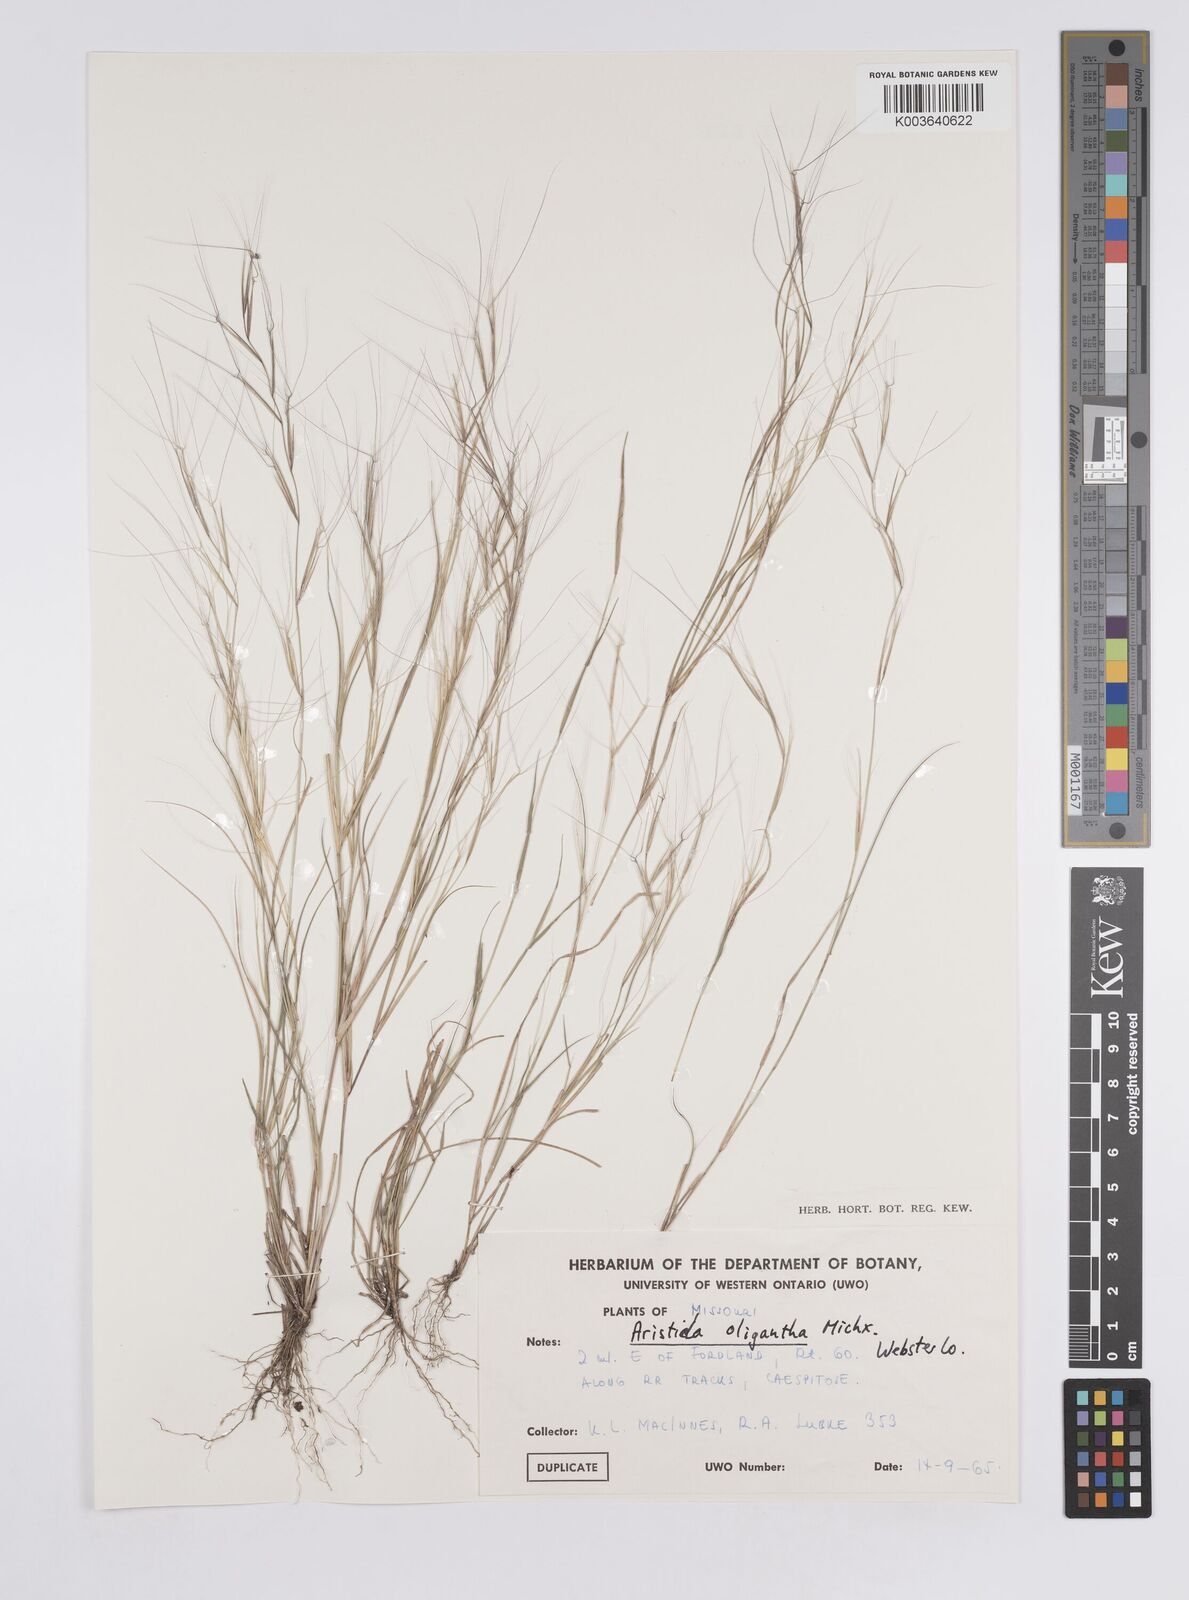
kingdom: Plantae
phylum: Tracheophyta
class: Liliopsida
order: Poales
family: Poaceae
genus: Aristida
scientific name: Aristida oligantha
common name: Few-flowered aristida
